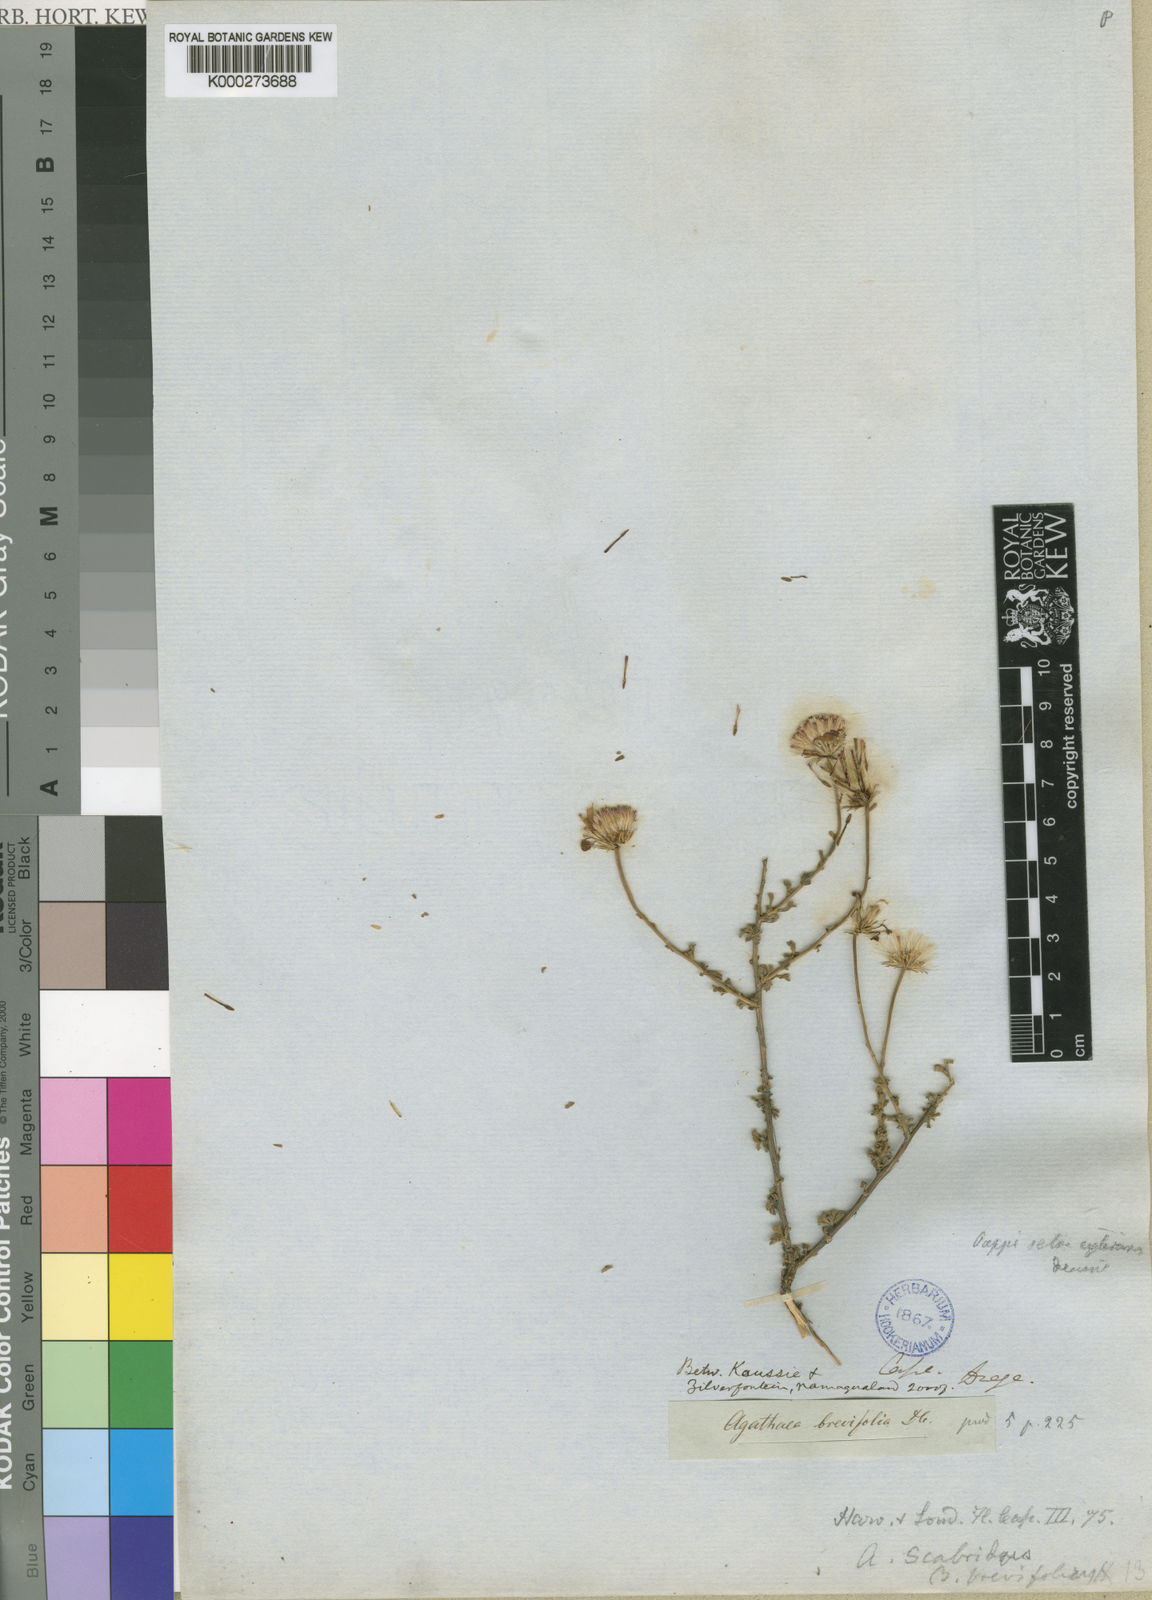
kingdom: Plantae
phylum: Tracheophyta
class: Magnoliopsida
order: Asterales
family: Asteraceae
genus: Felicia
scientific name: Felicia
